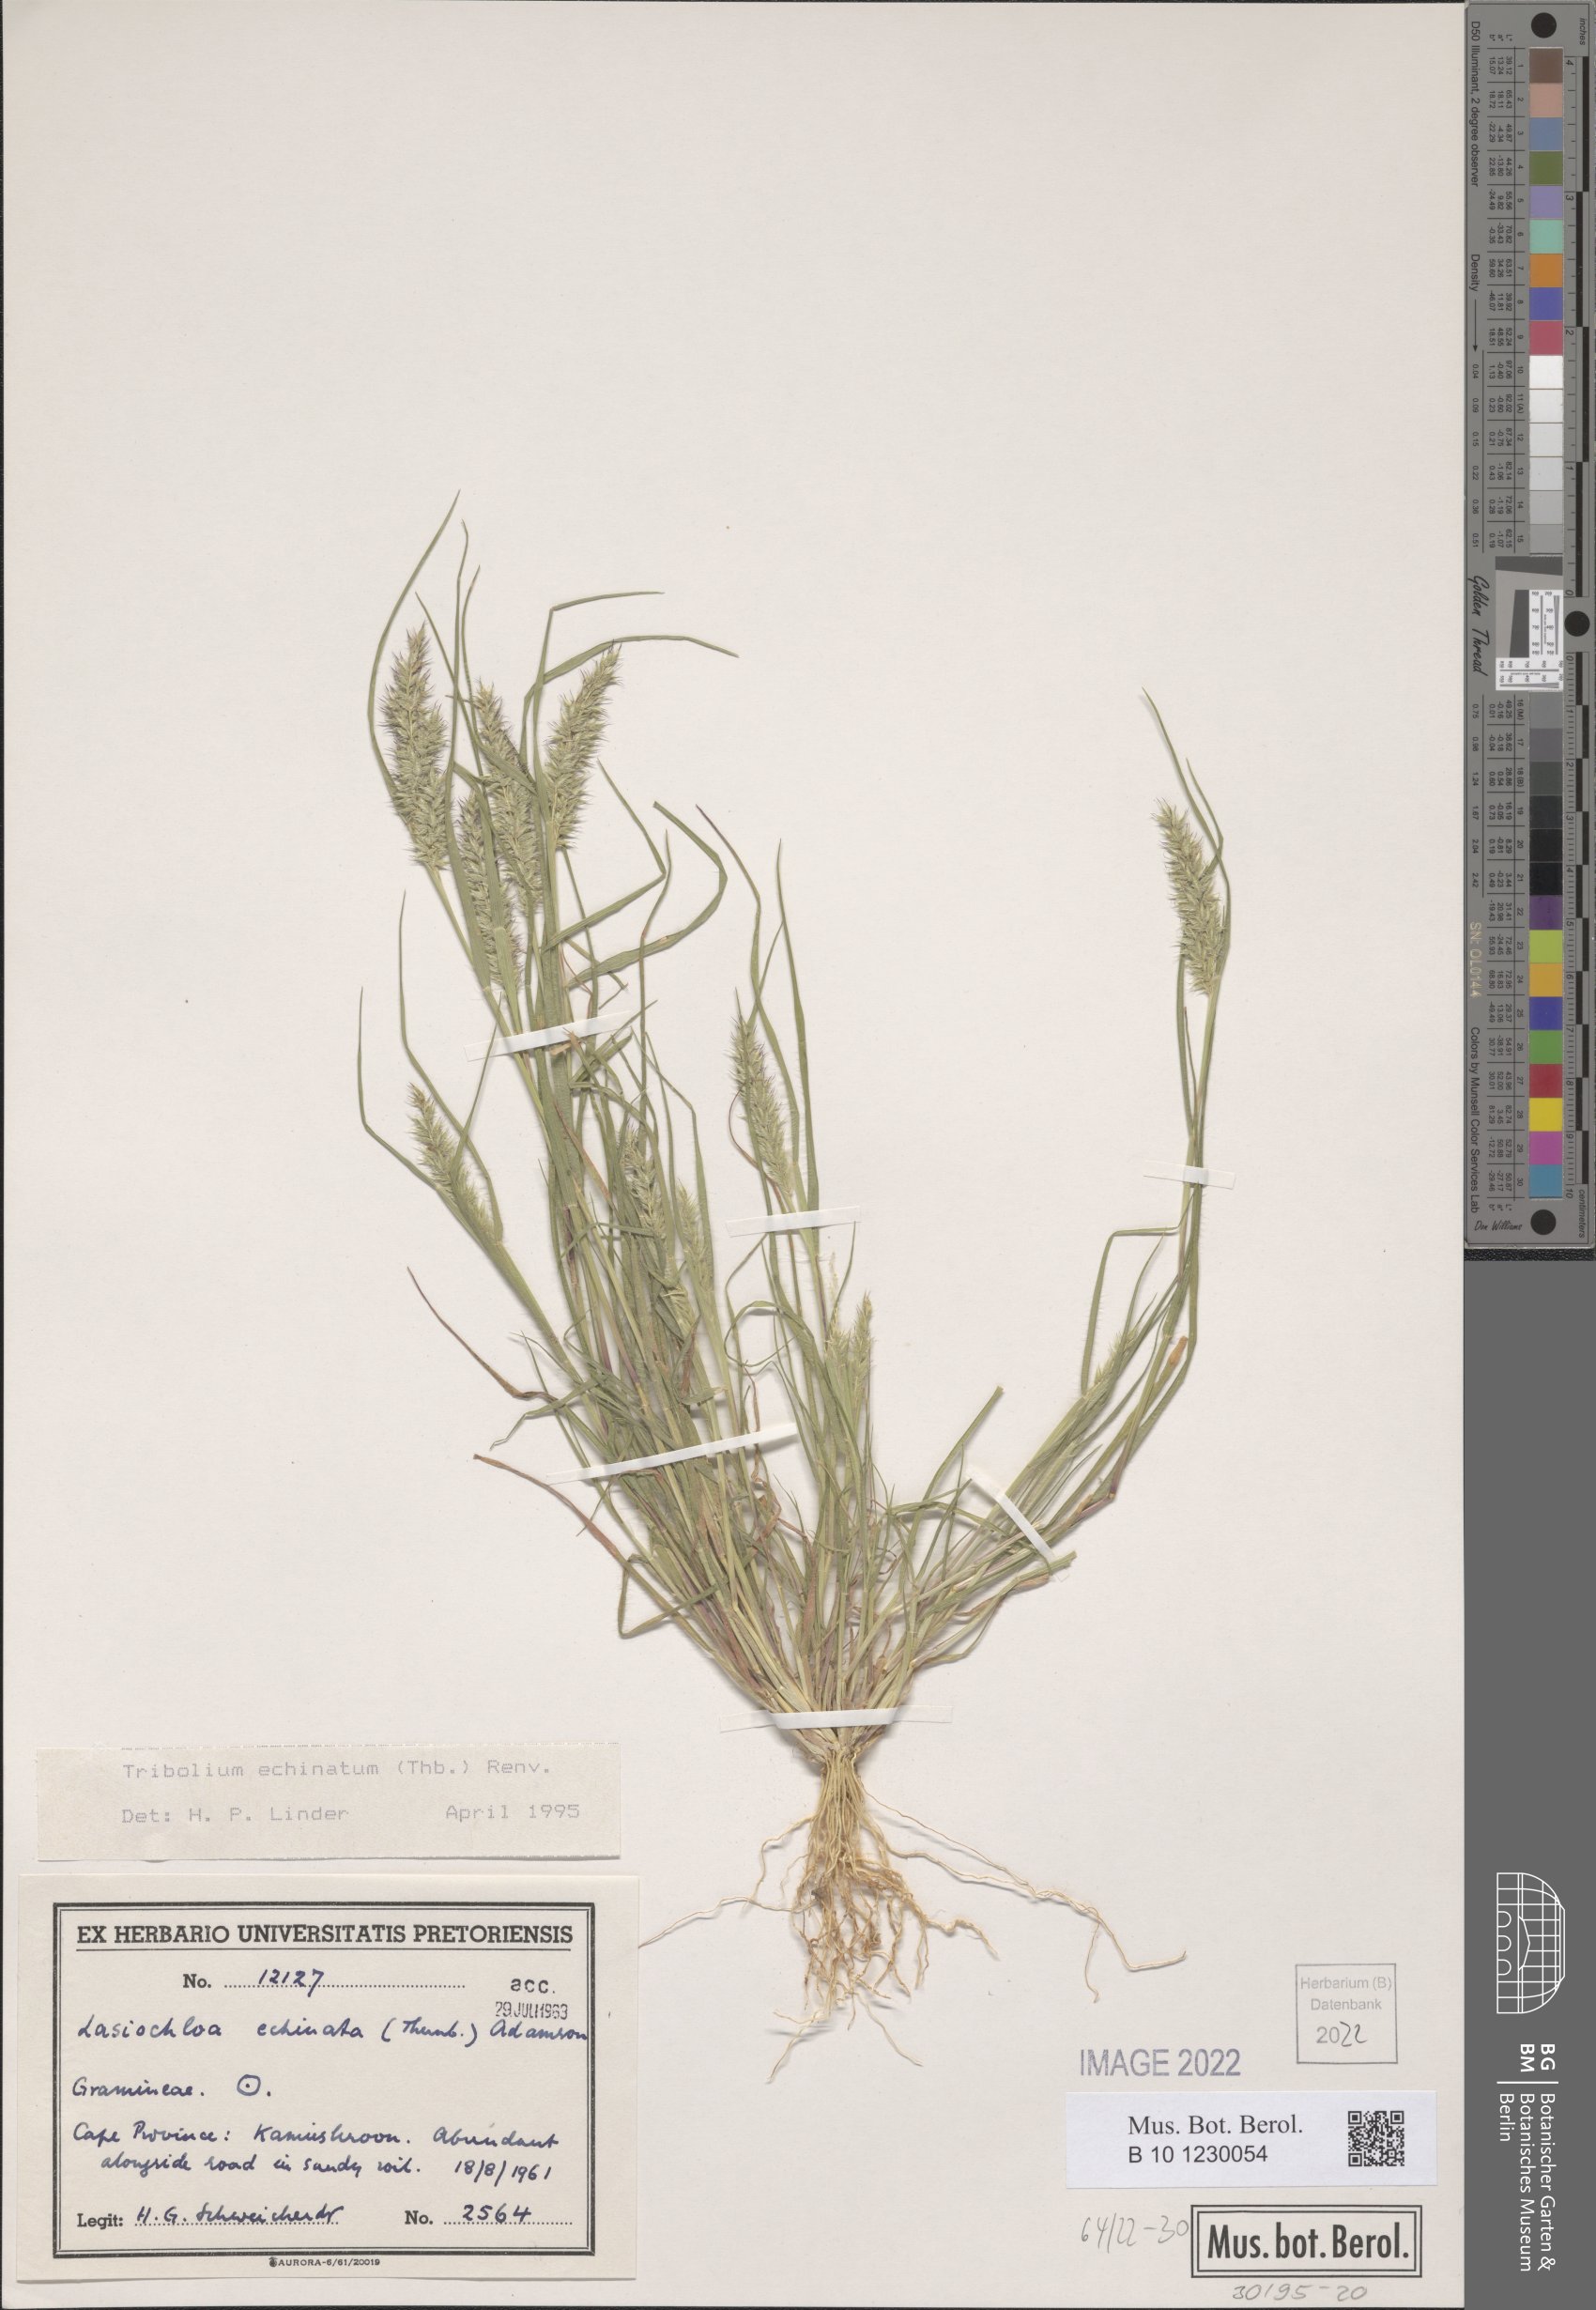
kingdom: Plantae
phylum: Tracheophyta
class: Liliopsida
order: Poales
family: Poaceae
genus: Tribolium
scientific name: Tribolium echinatum
